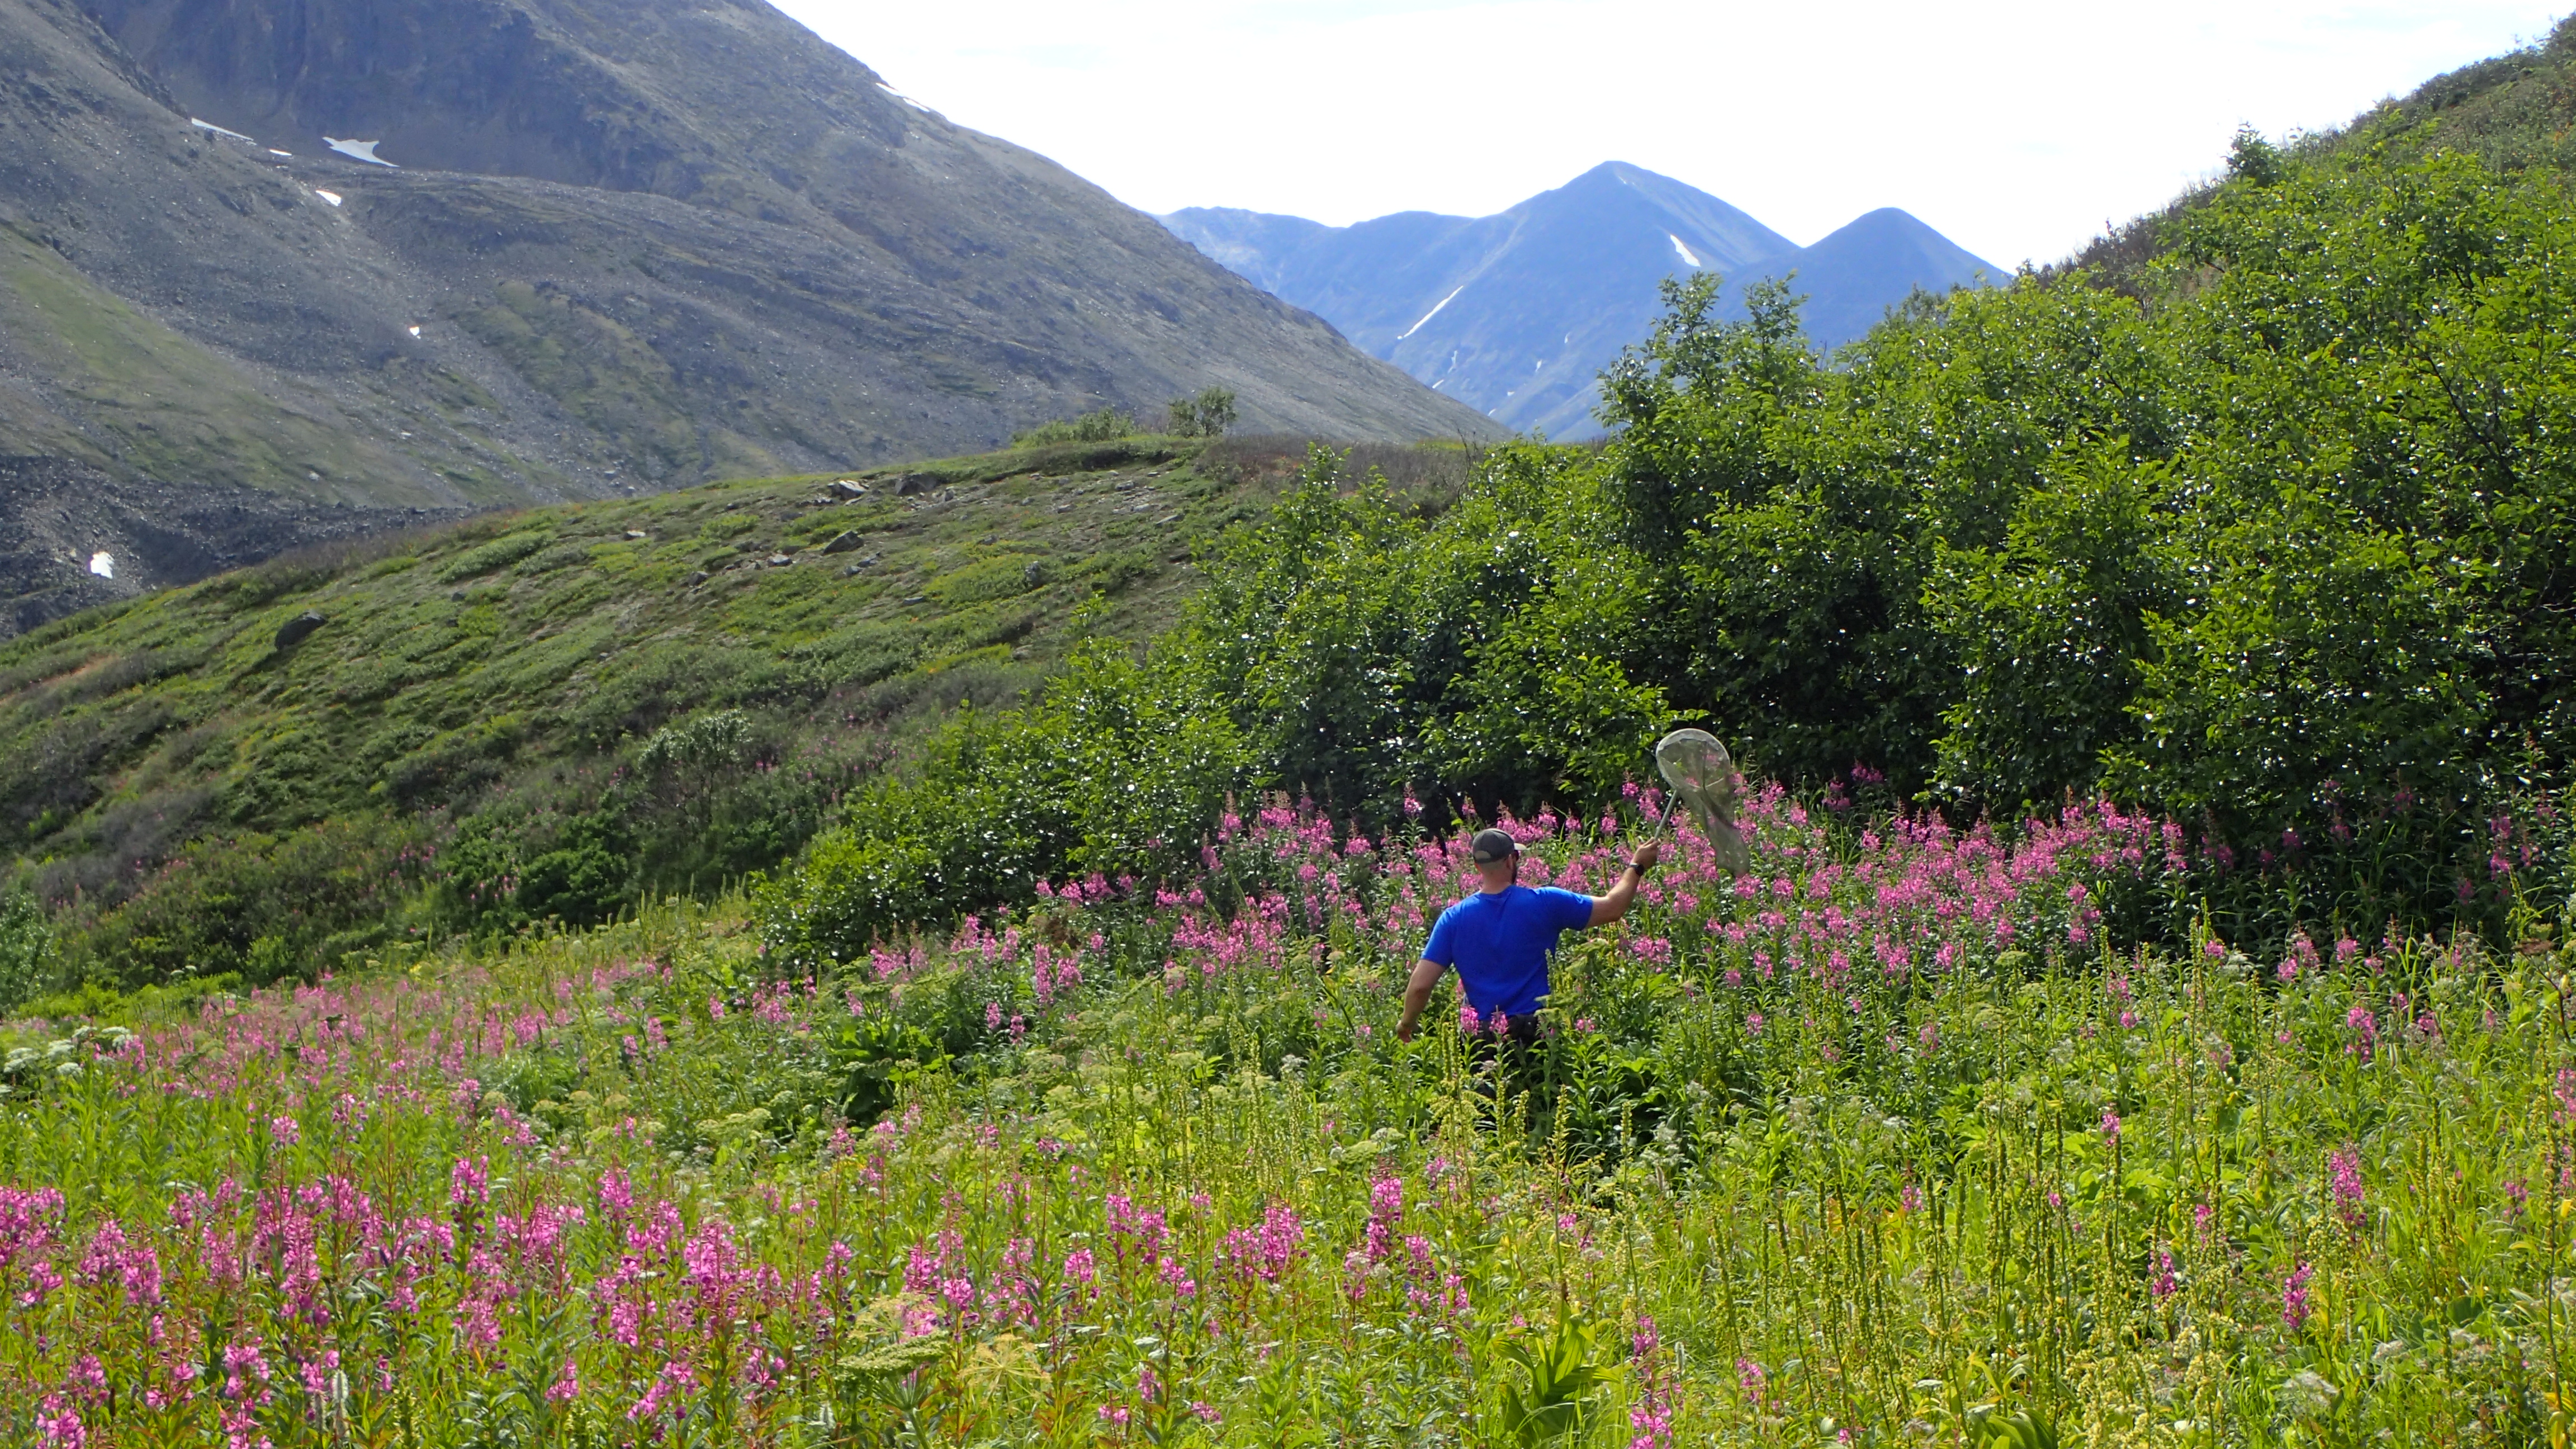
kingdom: Animalia
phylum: Arthropoda
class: Insecta
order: Diptera
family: Muscidae
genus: Thricops
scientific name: Thricops albibasalis
